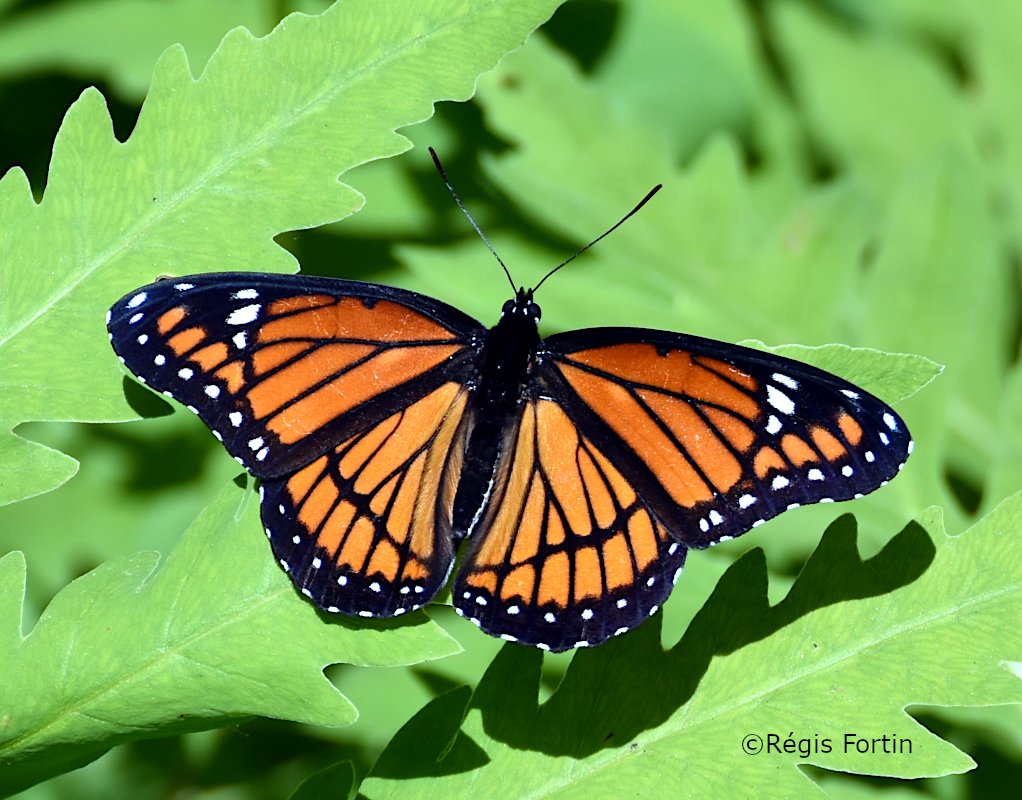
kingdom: Animalia
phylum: Arthropoda
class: Insecta
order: Lepidoptera
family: Nymphalidae
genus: Limenitis
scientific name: Limenitis archippus
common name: Viceroy
